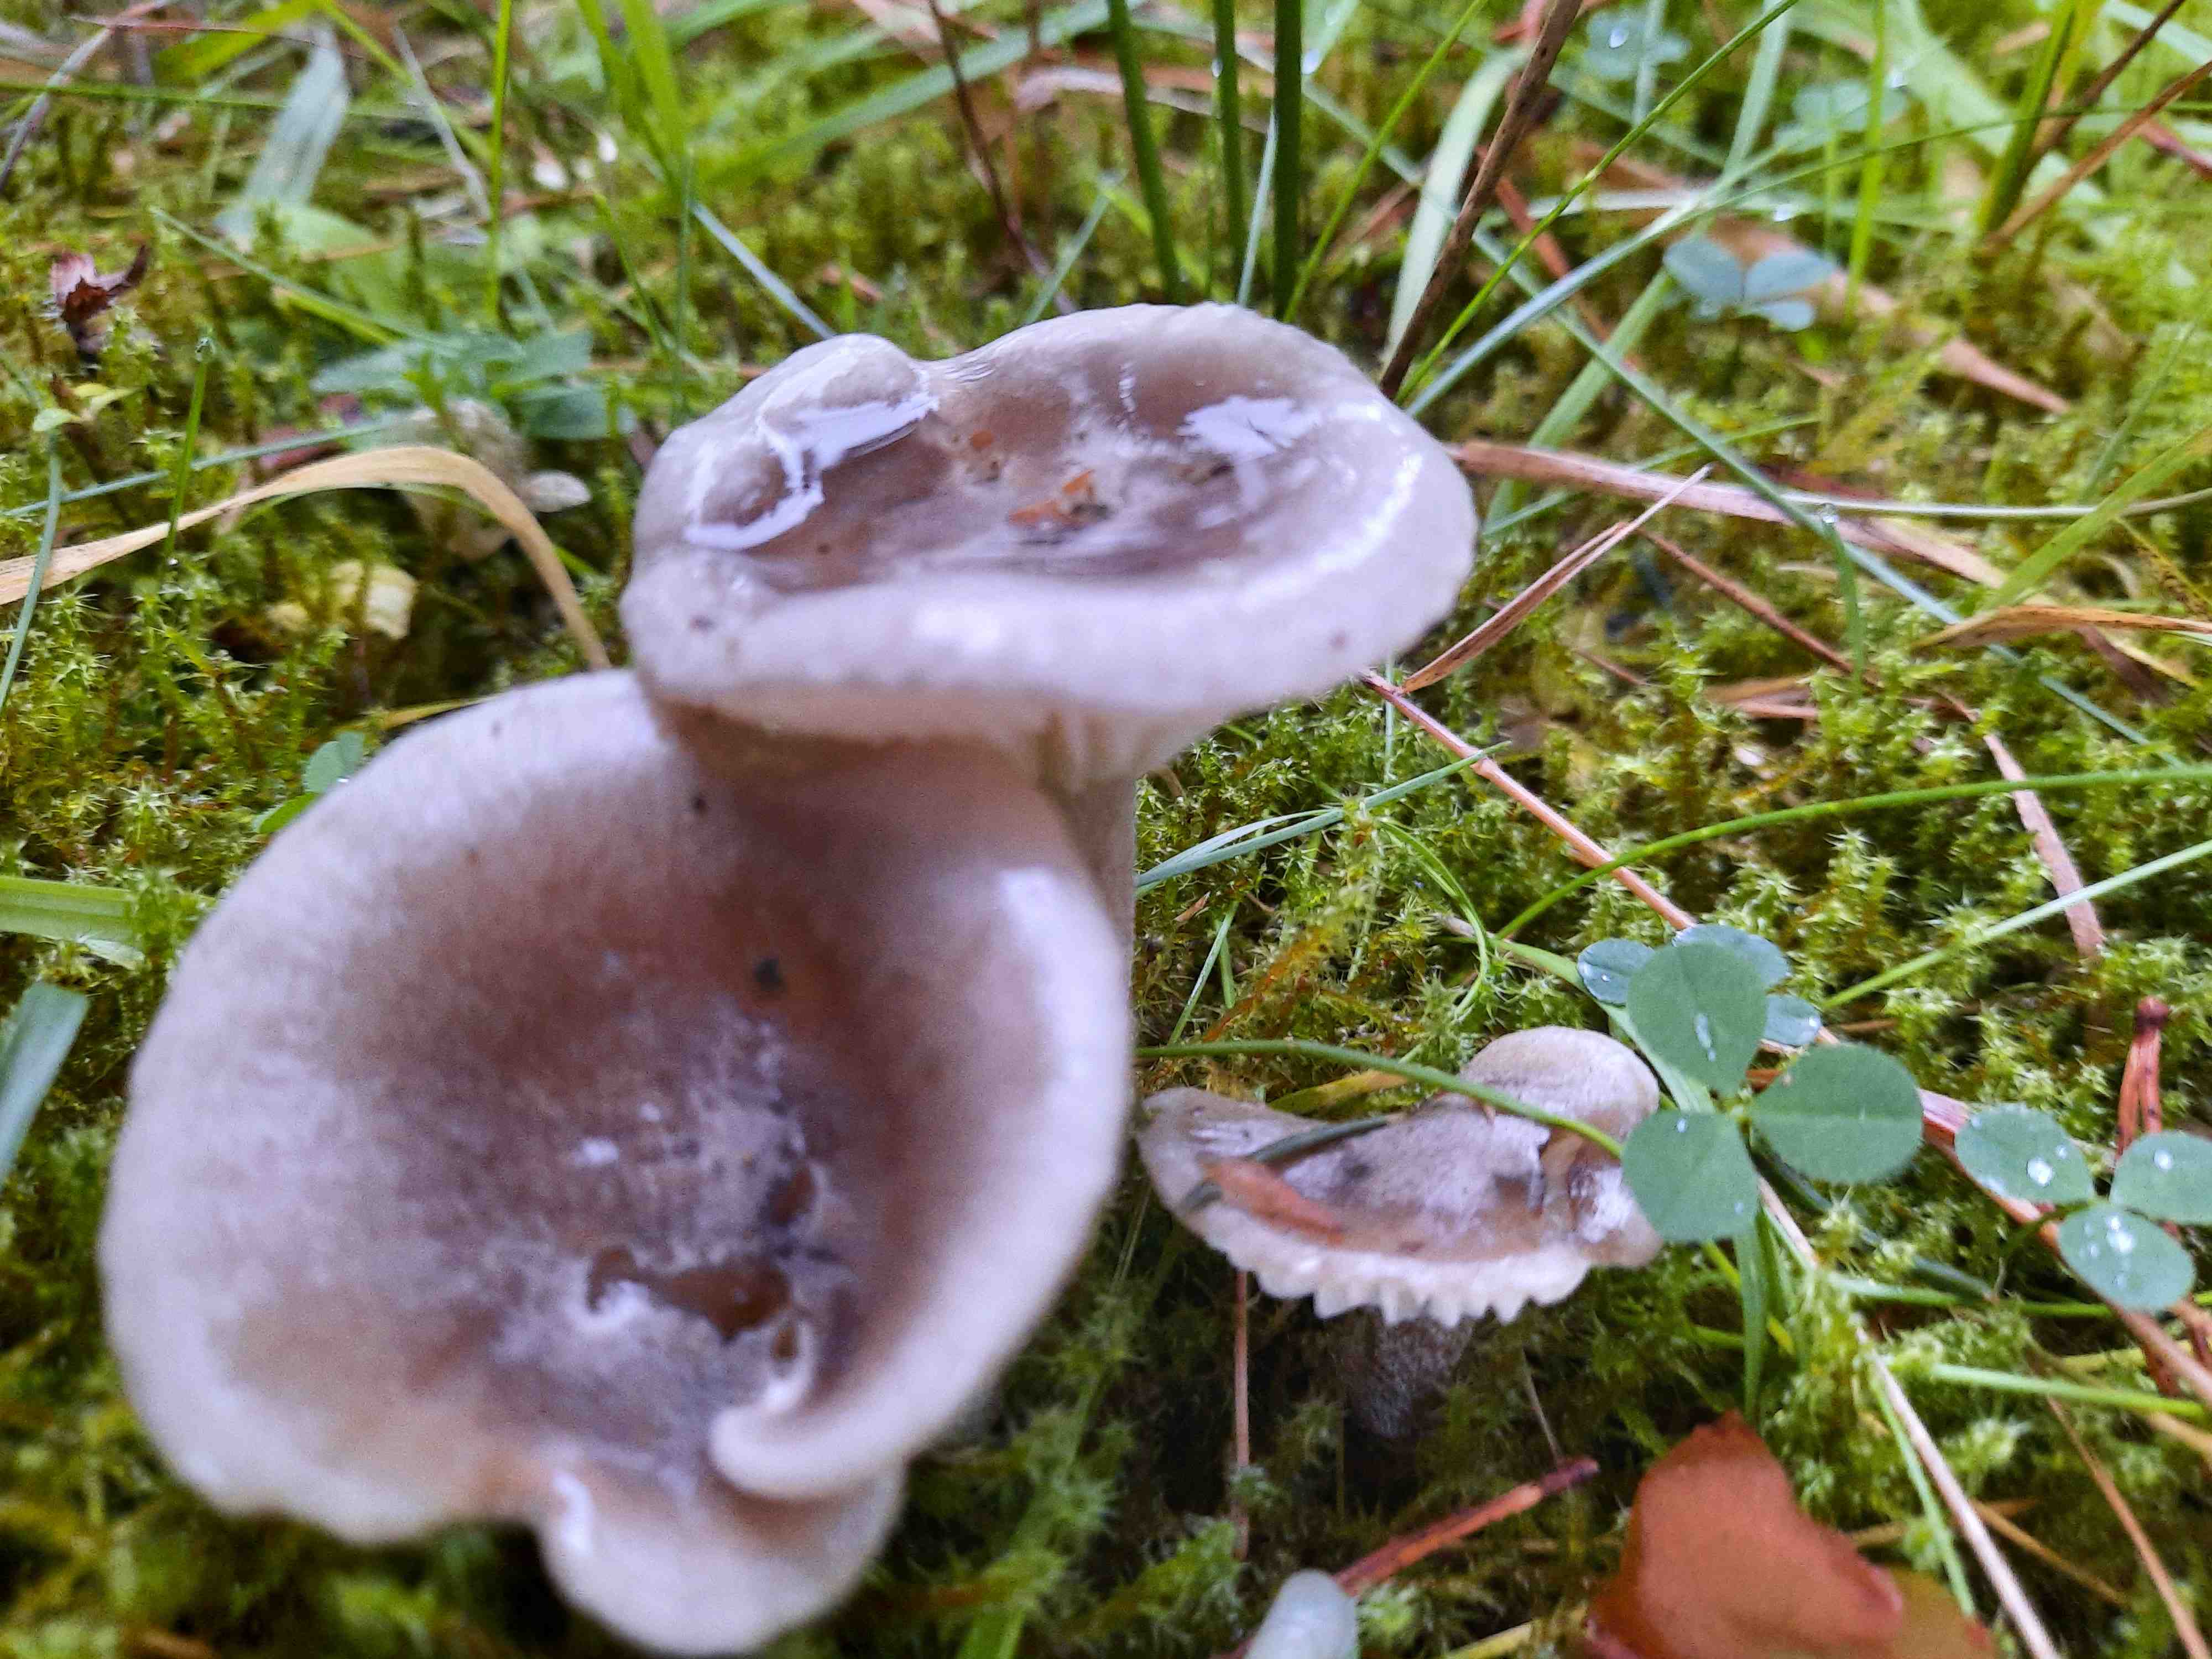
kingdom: Fungi
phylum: Basidiomycota
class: Agaricomycetes
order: Agaricales
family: Hygrophoraceae
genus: Hygrophorus
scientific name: Hygrophorus agathosmus
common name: vellugtende sneglehat
